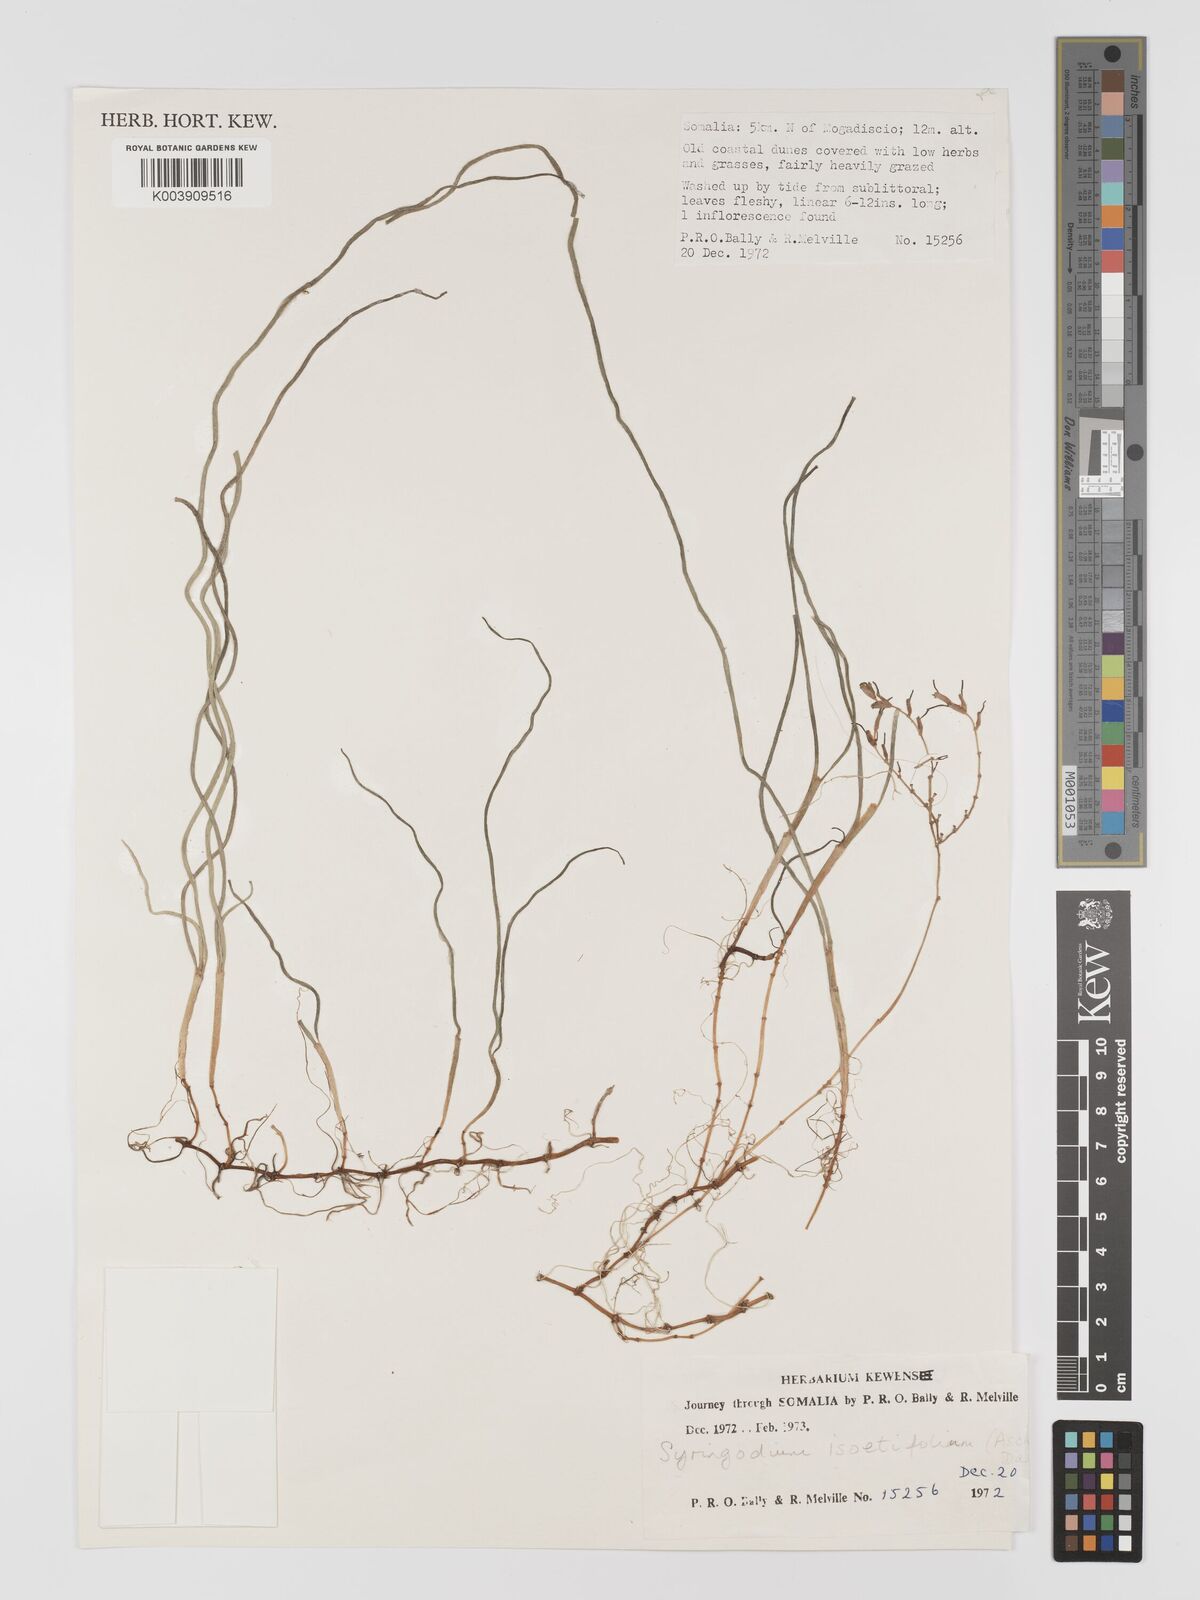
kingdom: Plantae
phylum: Tracheophyta
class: Liliopsida
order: Alismatales
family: Cymodoceaceae
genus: Syringodium
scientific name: Syringodium isoetifolium
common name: Species code: si
